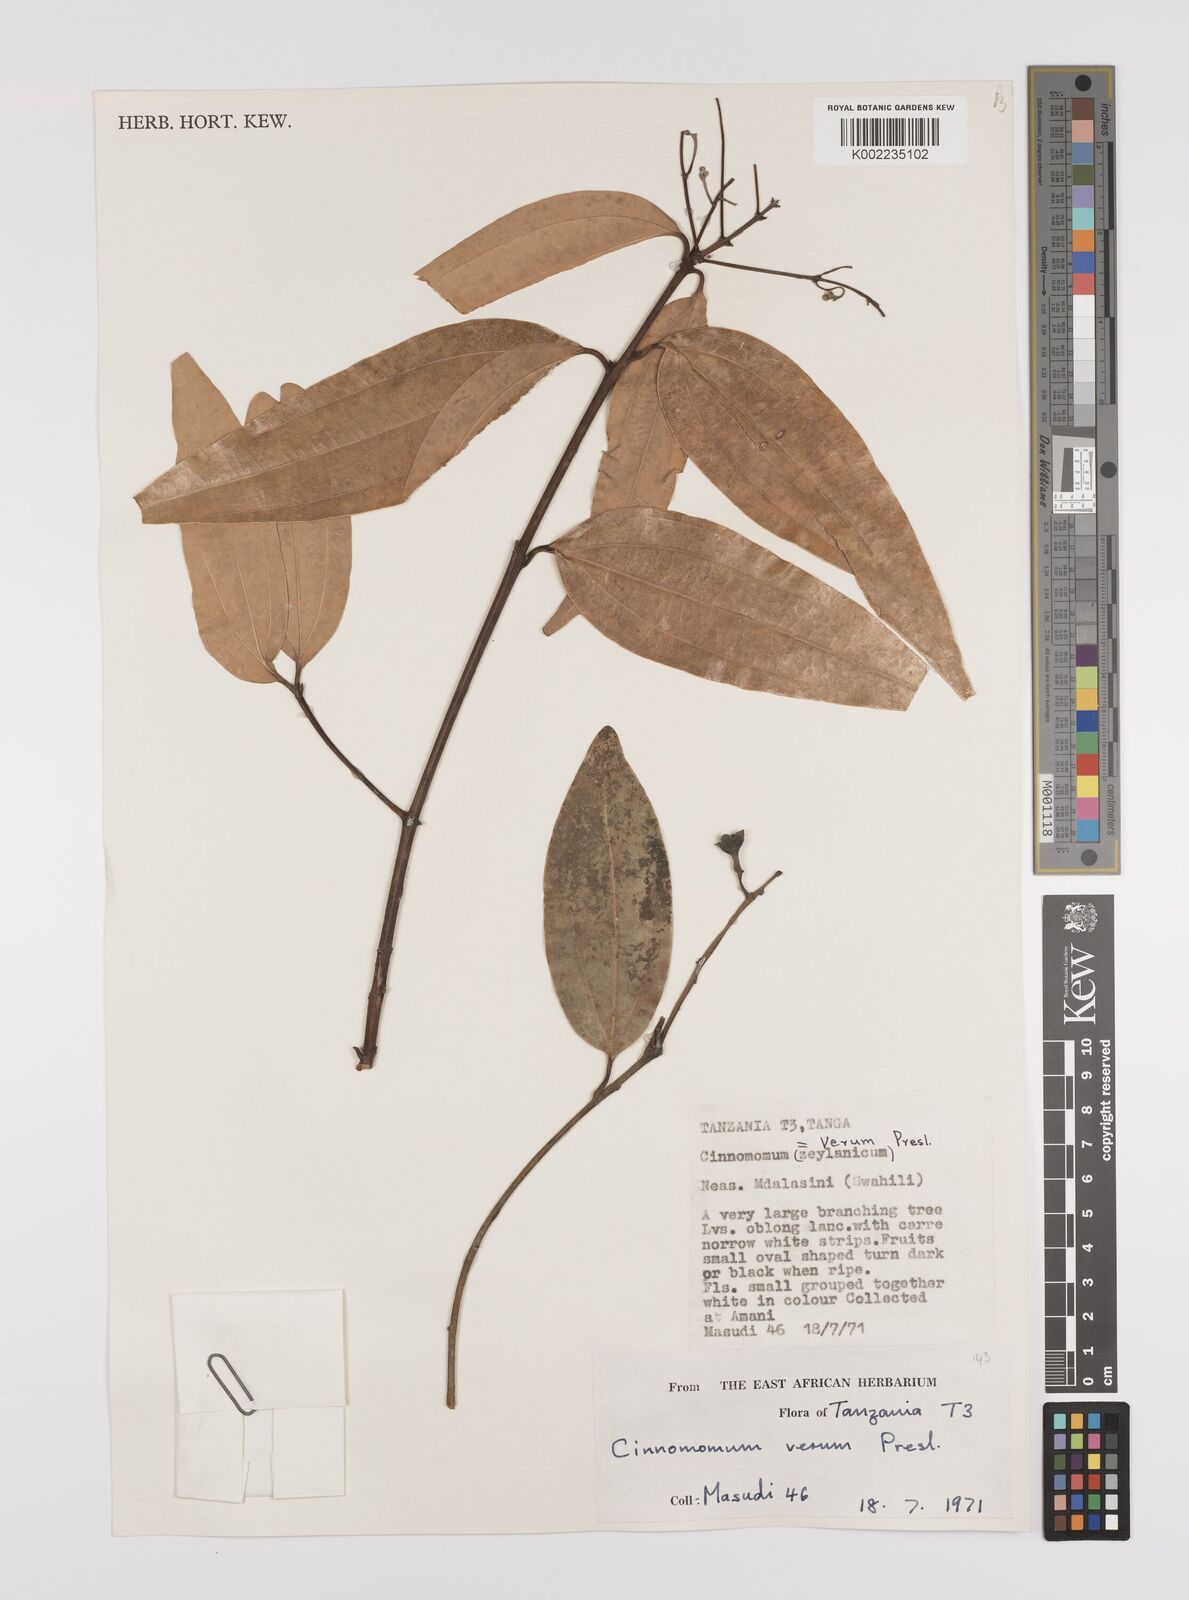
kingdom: Plantae
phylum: Tracheophyta
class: Magnoliopsida
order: Laurales
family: Lauraceae
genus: Cinnamomum
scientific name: Cinnamomum verum
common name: Cinnamon
